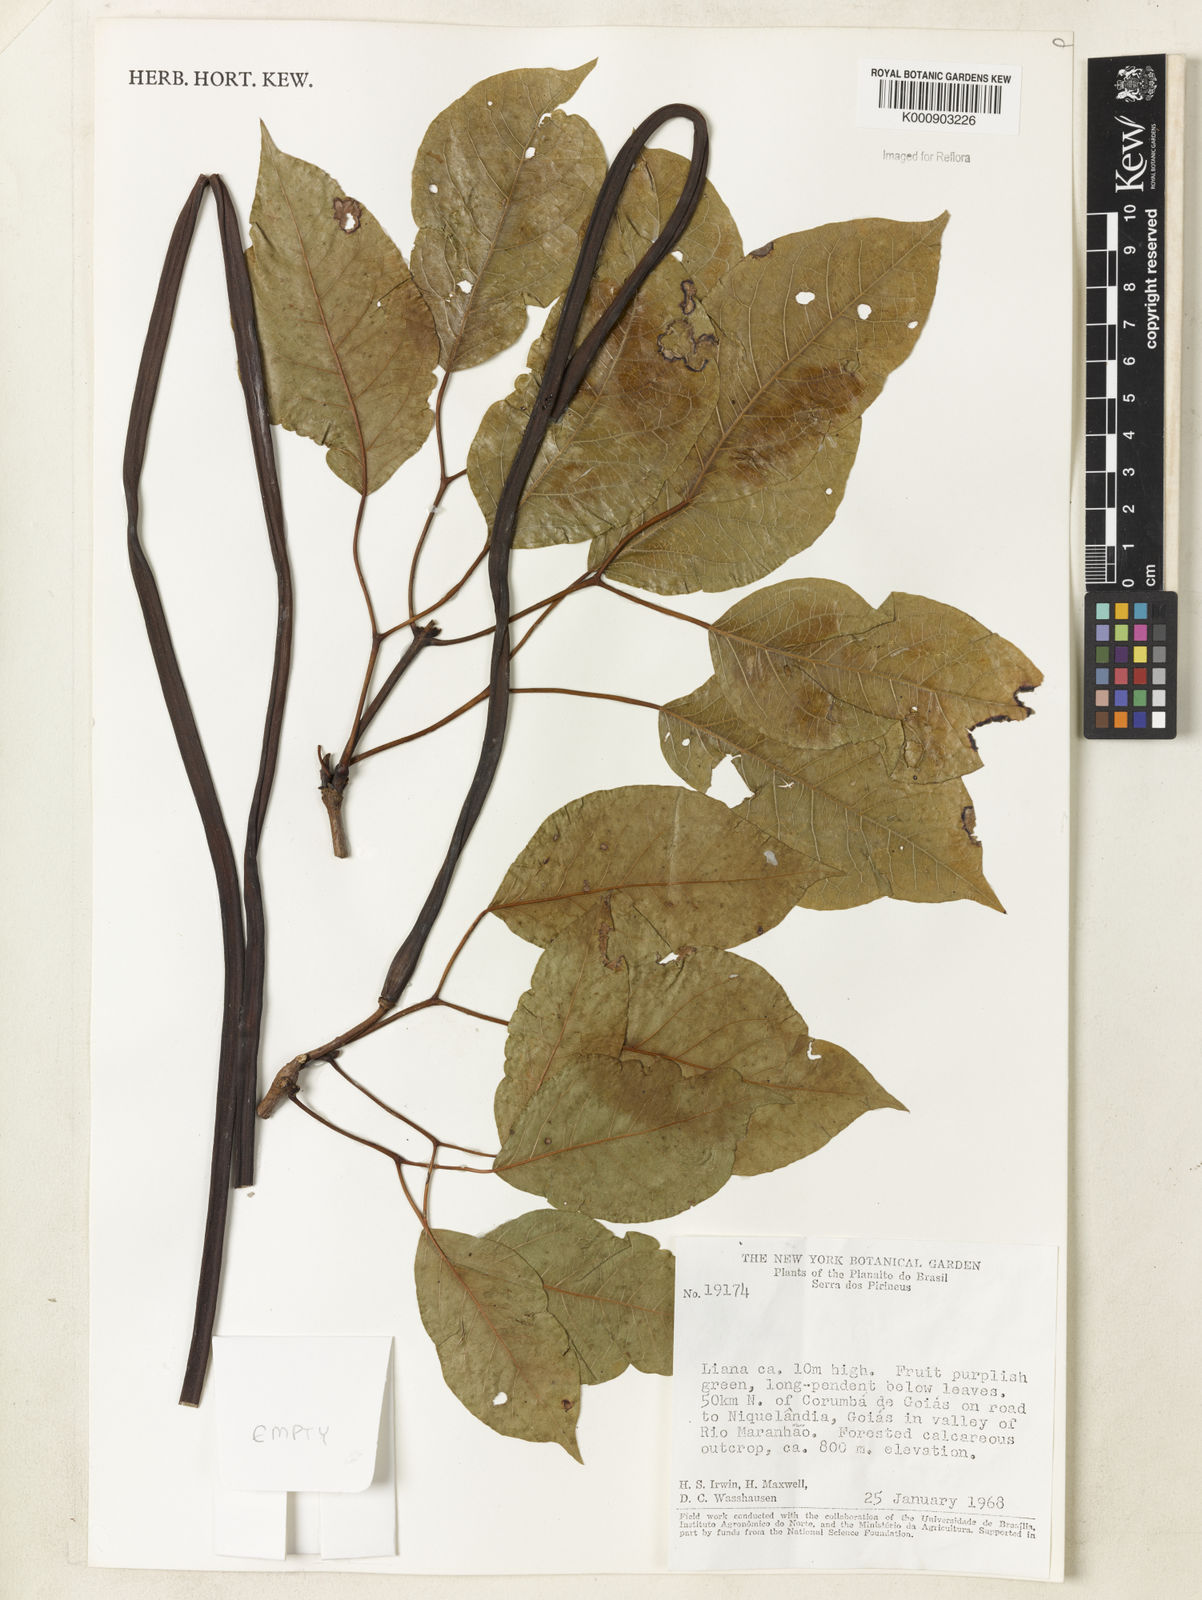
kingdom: Plantae
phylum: Tracheophyta
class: Magnoliopsida
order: Lamiales
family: Bignoniaceae
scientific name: Bignoniaceae
